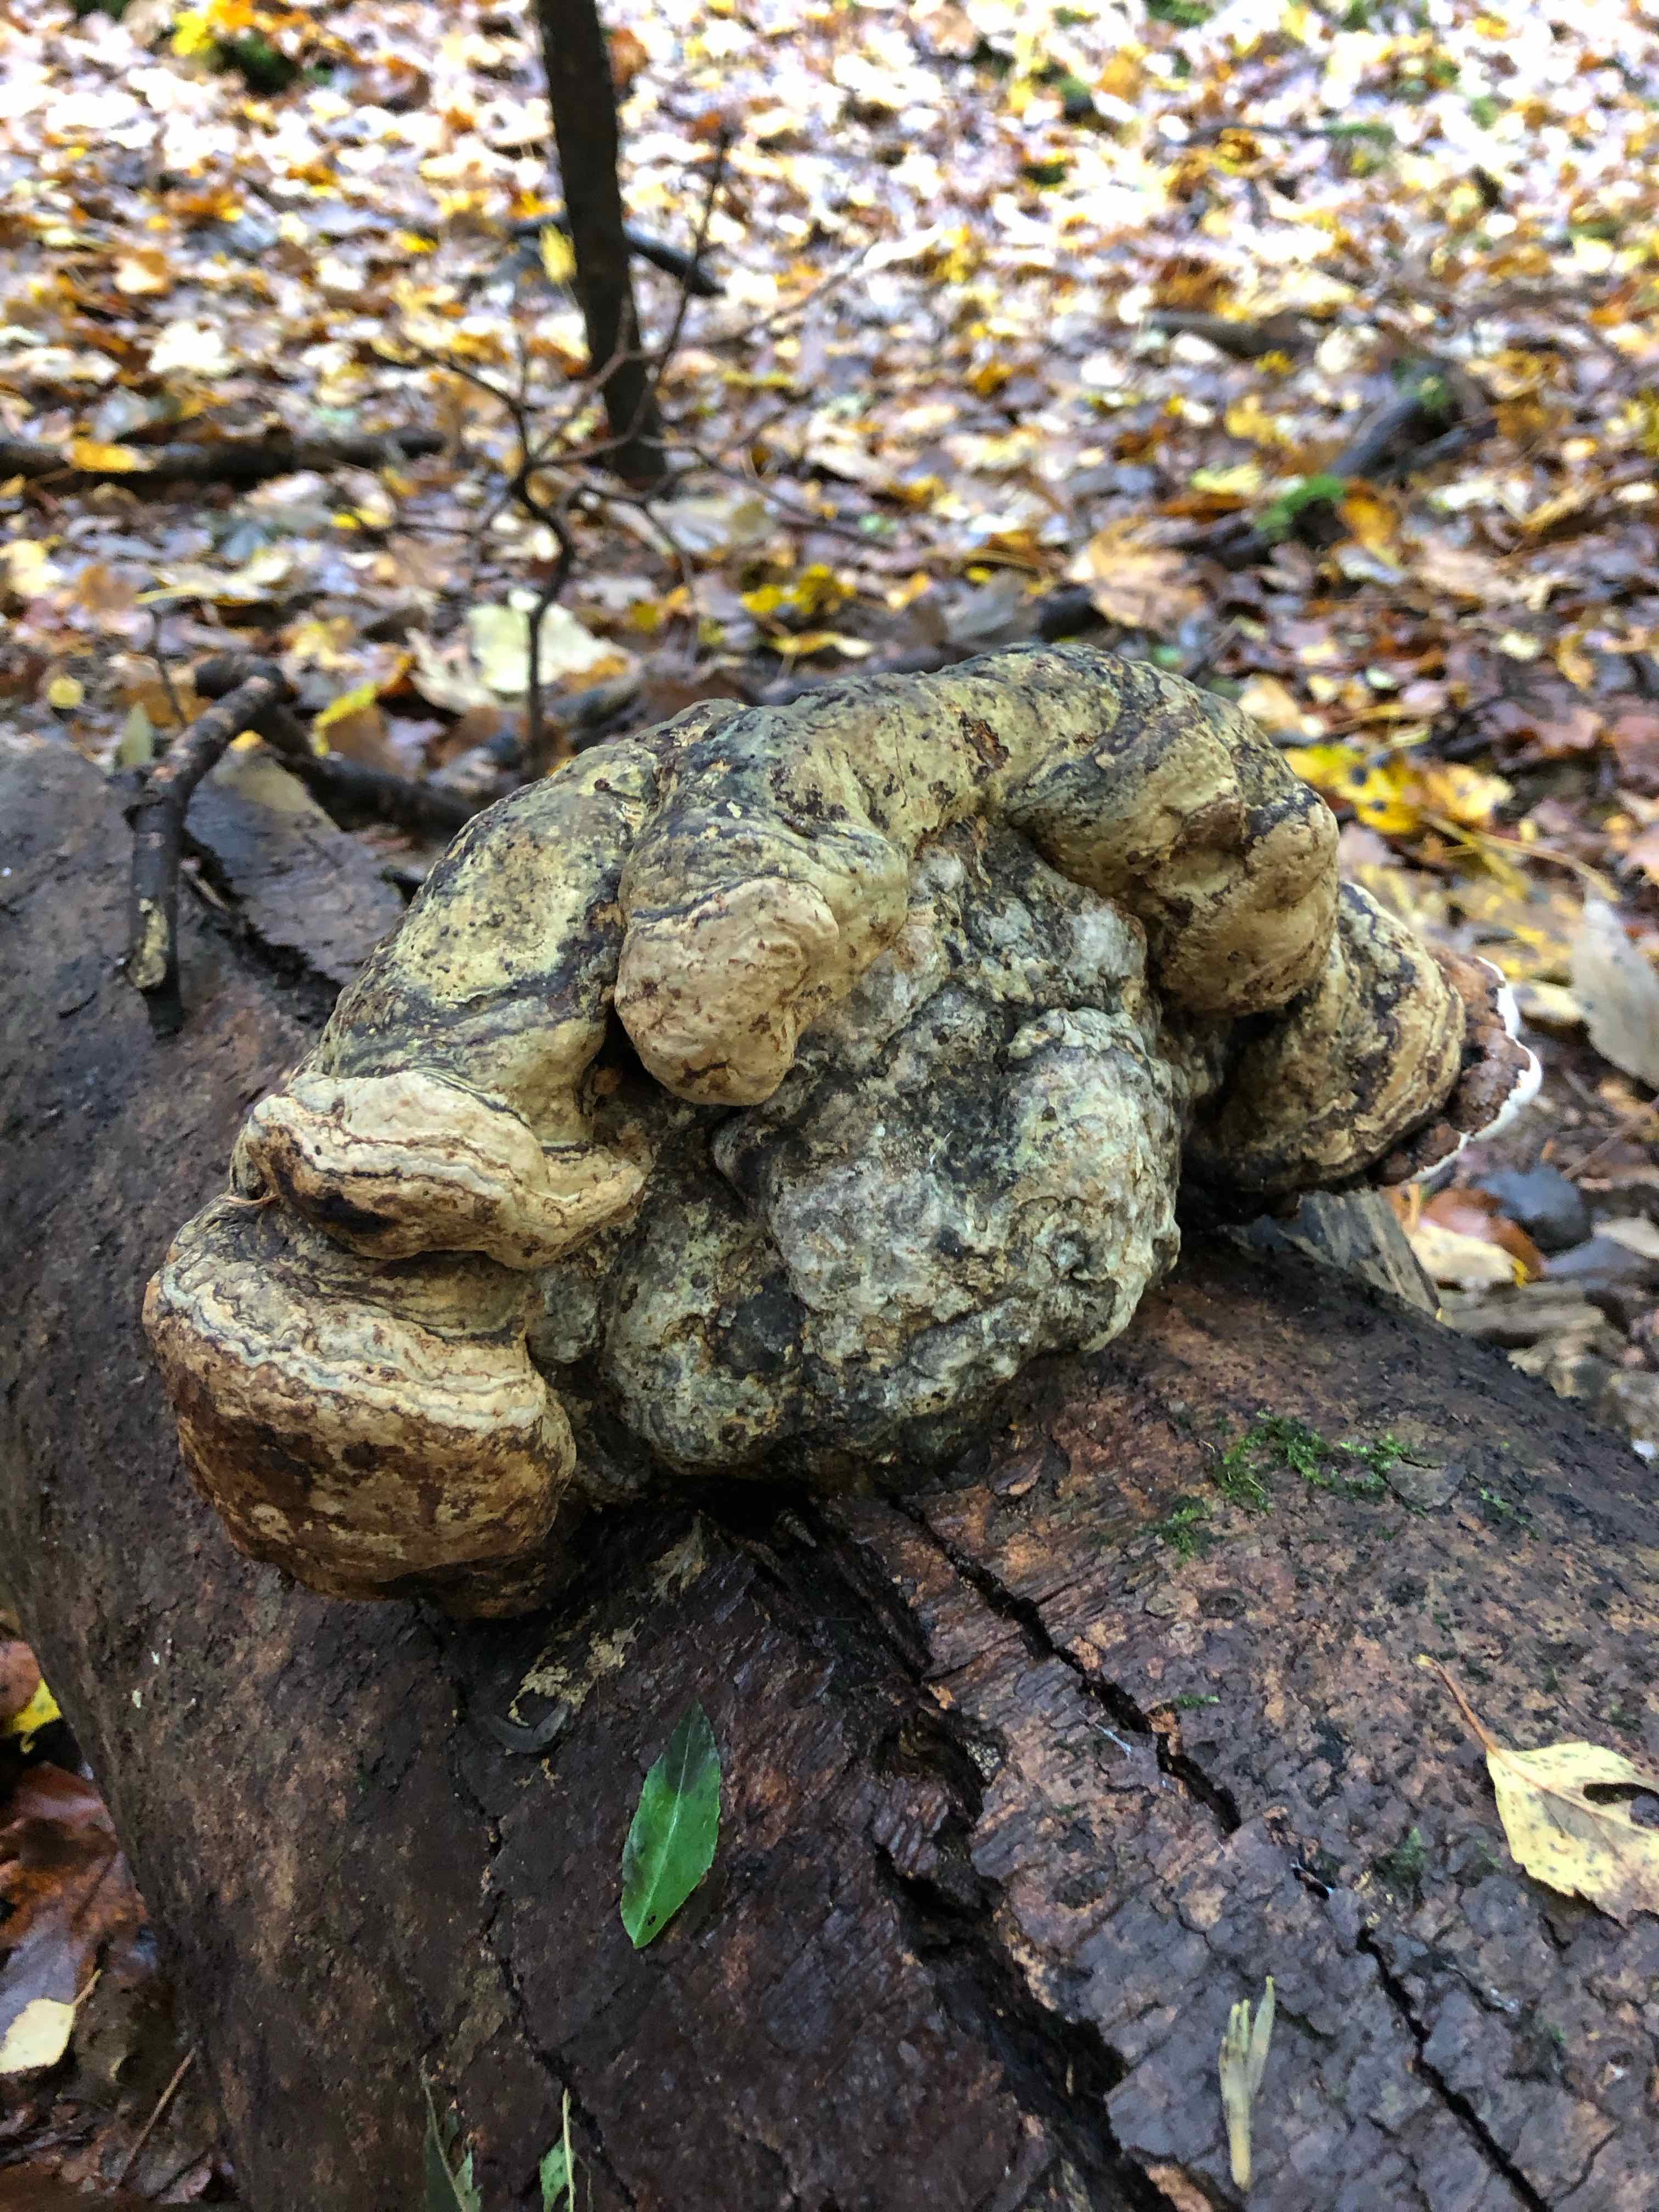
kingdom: Fungi
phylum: Basidiomycota
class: Agaricomycetes
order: Polyporales
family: Polyporaceae
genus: Fomes
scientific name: Fomes fomentarius
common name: tøndersvamp
